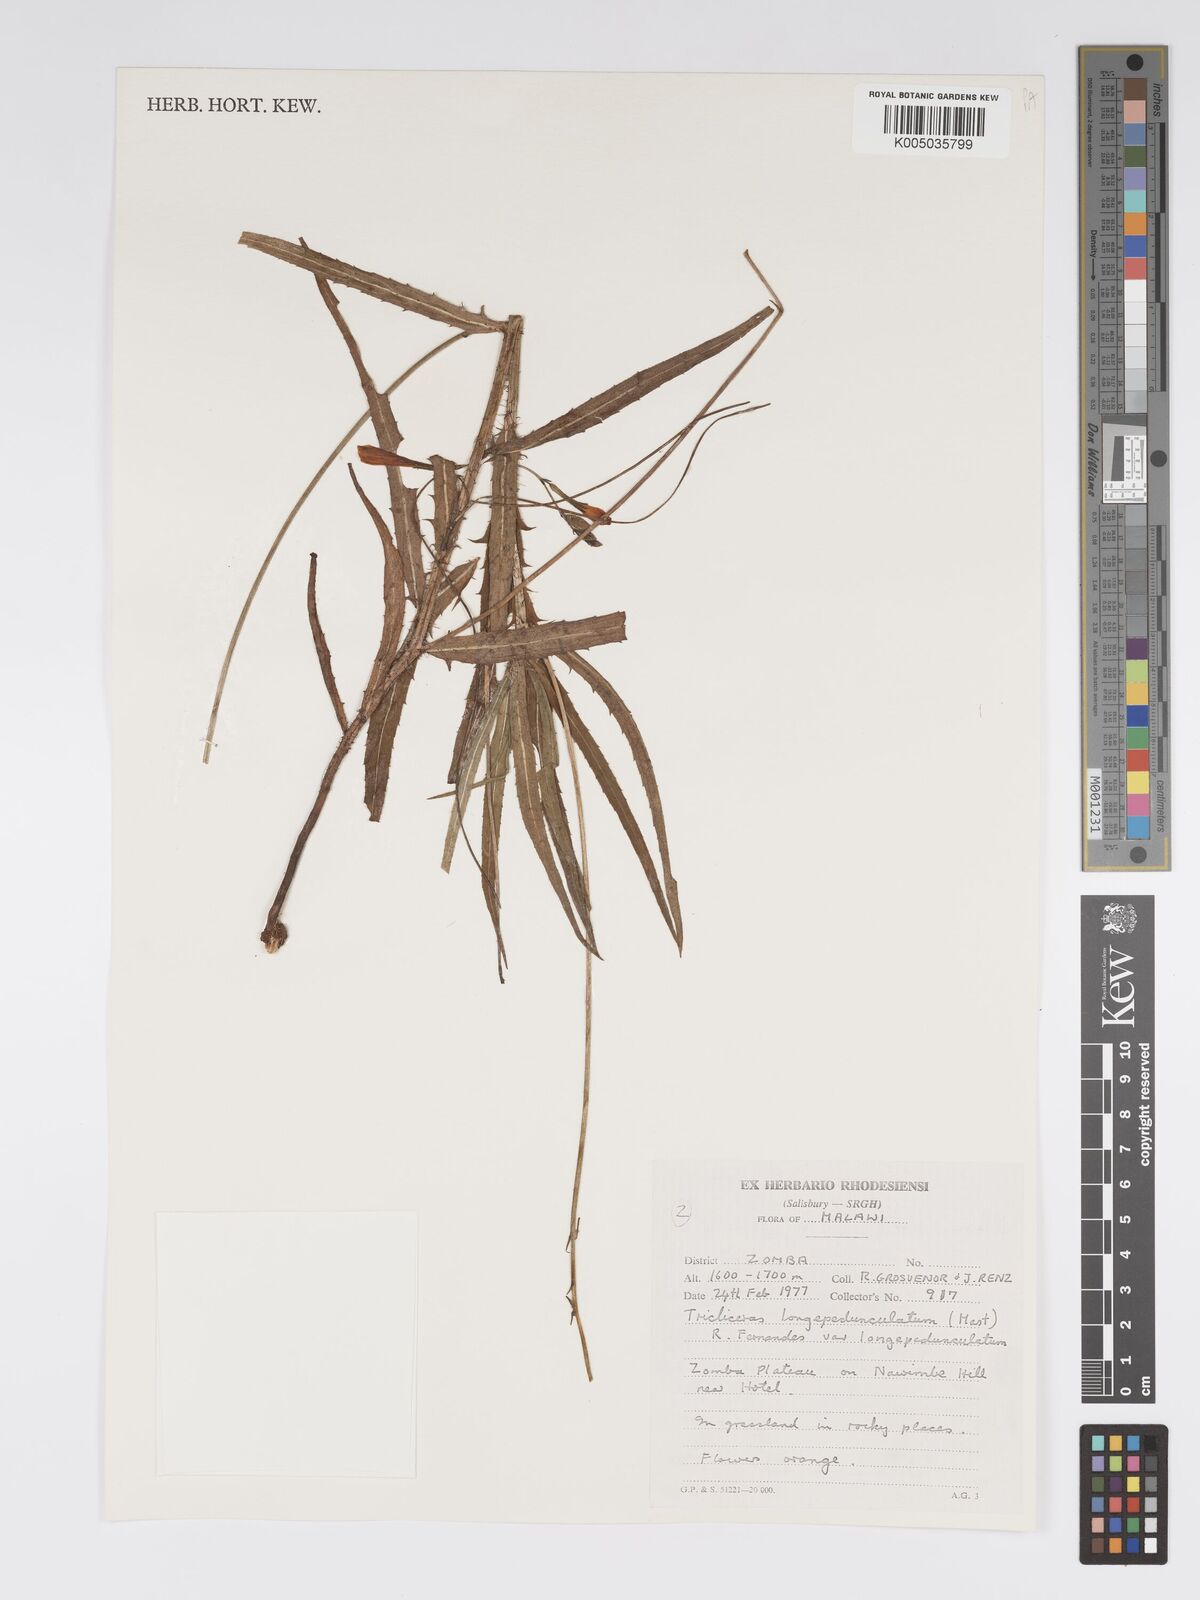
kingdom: Plantae
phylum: Tracheophyta
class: Magnoliopsida
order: Malpighiales
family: Turneraceae
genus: Tricliceras
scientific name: Tricliceras longepedunculatum
